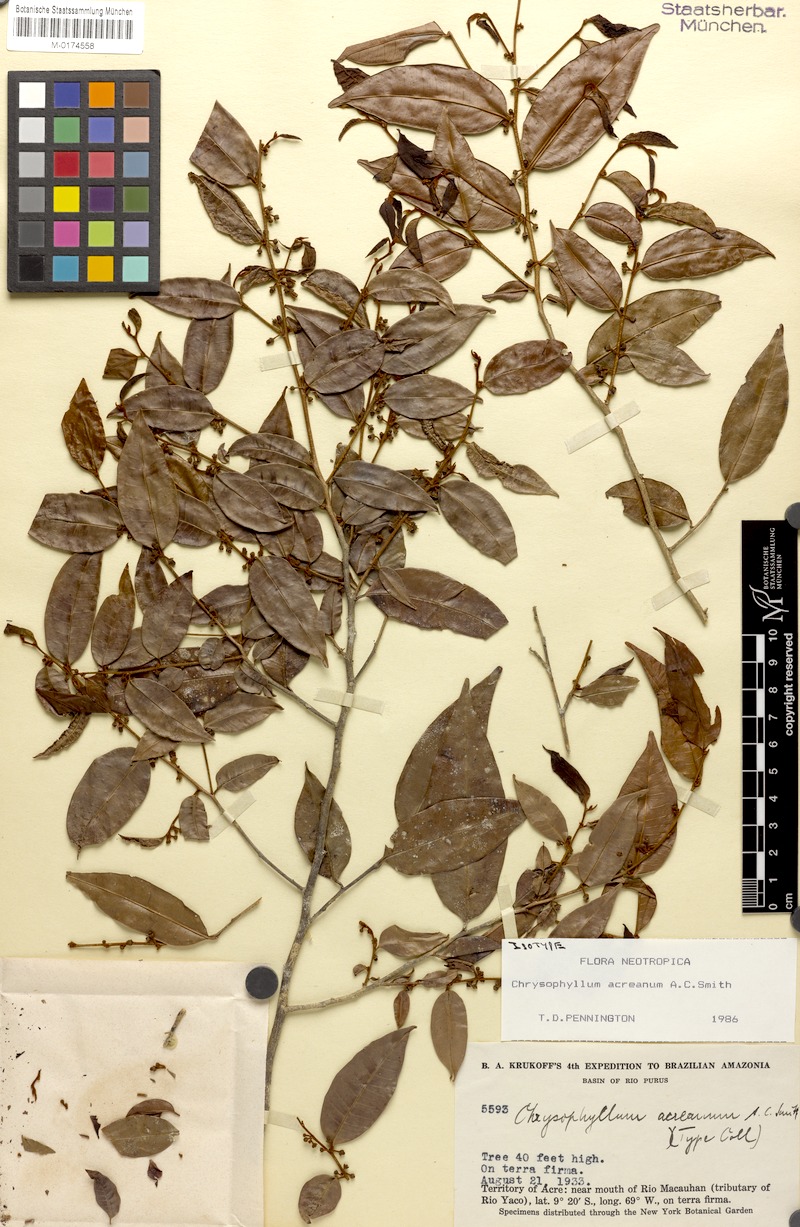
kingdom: Plantae
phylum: Tracheophyta
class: Magnoliopsida
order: Ericales
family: Sapotaceae
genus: Chrysophyllum
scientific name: Chrysophyllum acreanum
